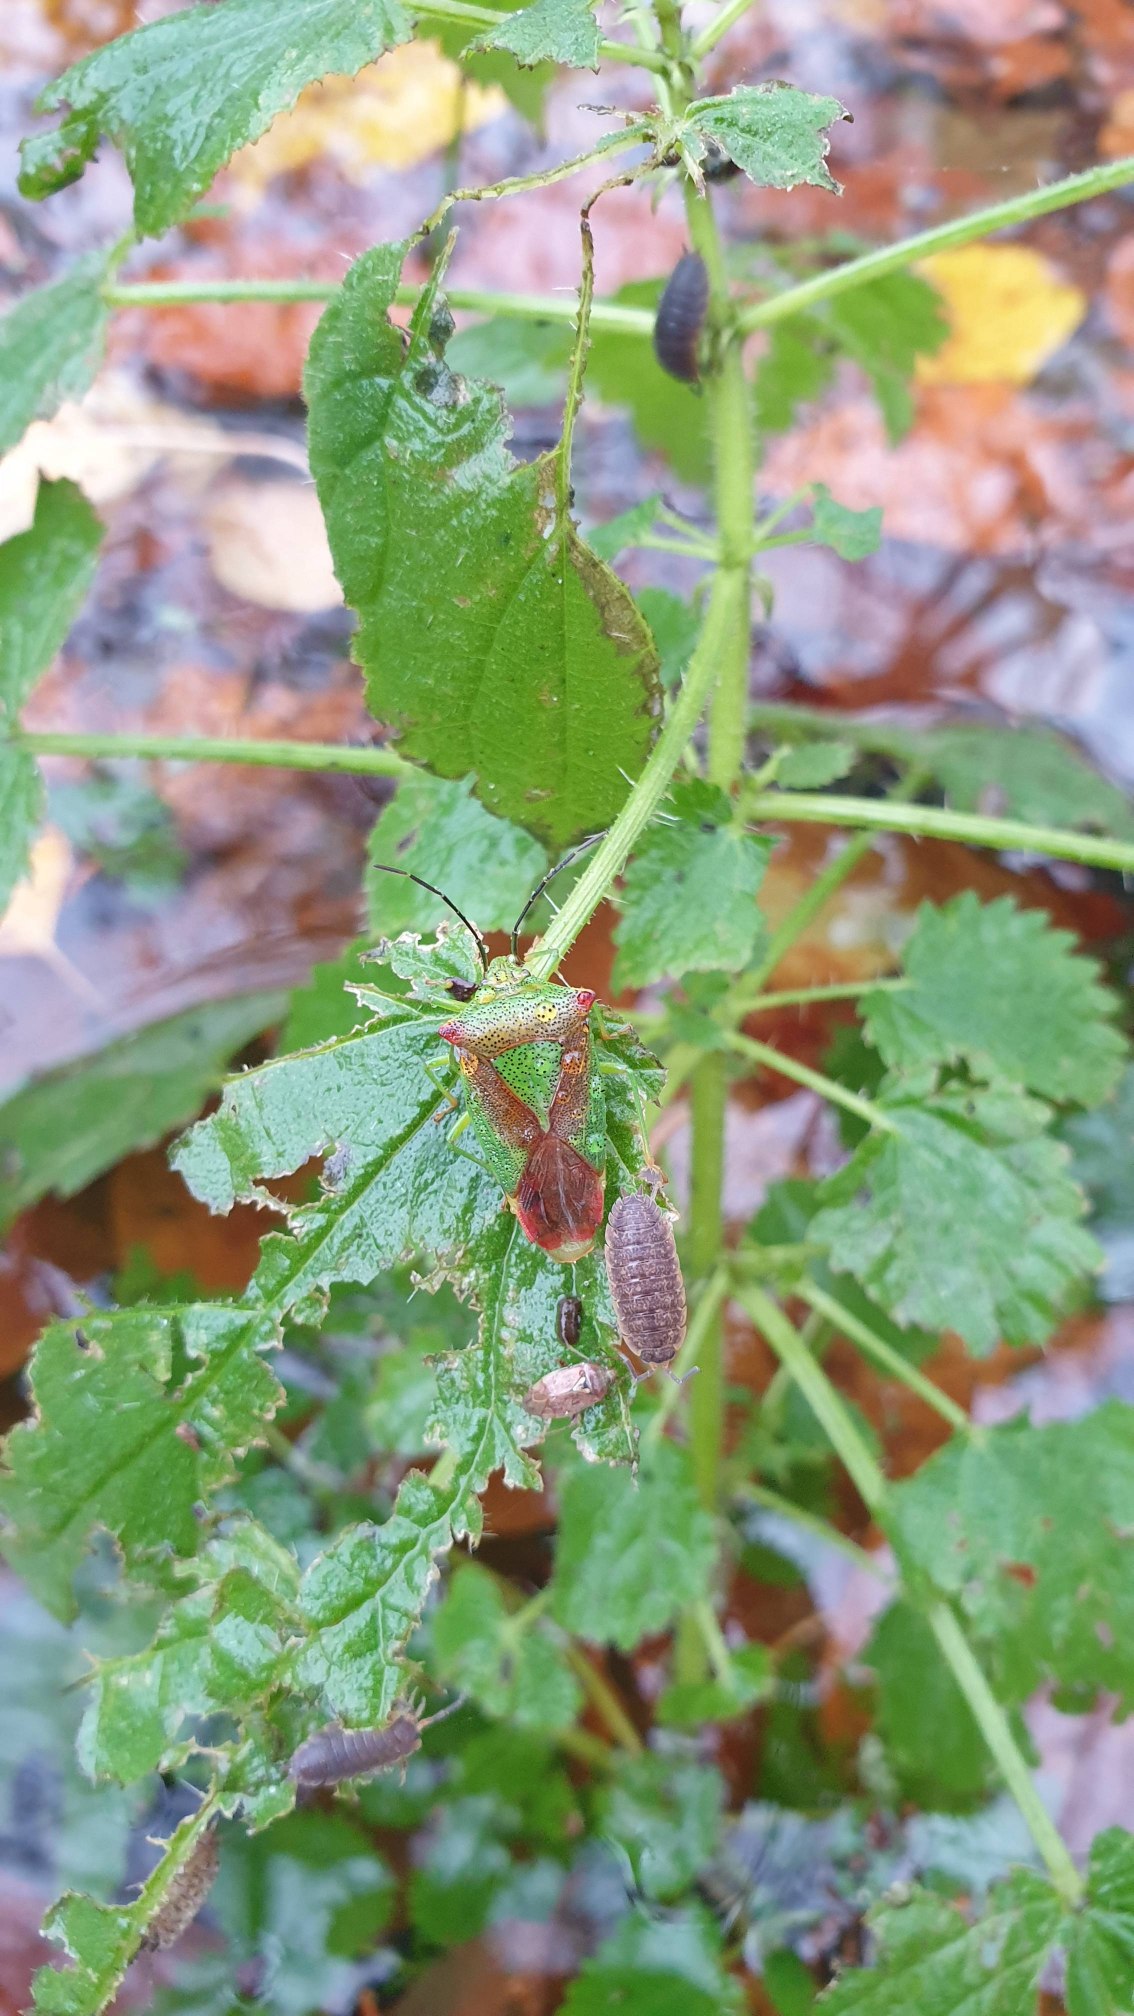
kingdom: Animalia
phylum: Arthropoda
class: Insecta
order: Hemiptera
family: Acanthosomatidae
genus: Acanthosoma
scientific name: Acanthosoma haemorrhoidale
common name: Stor løvtæge
